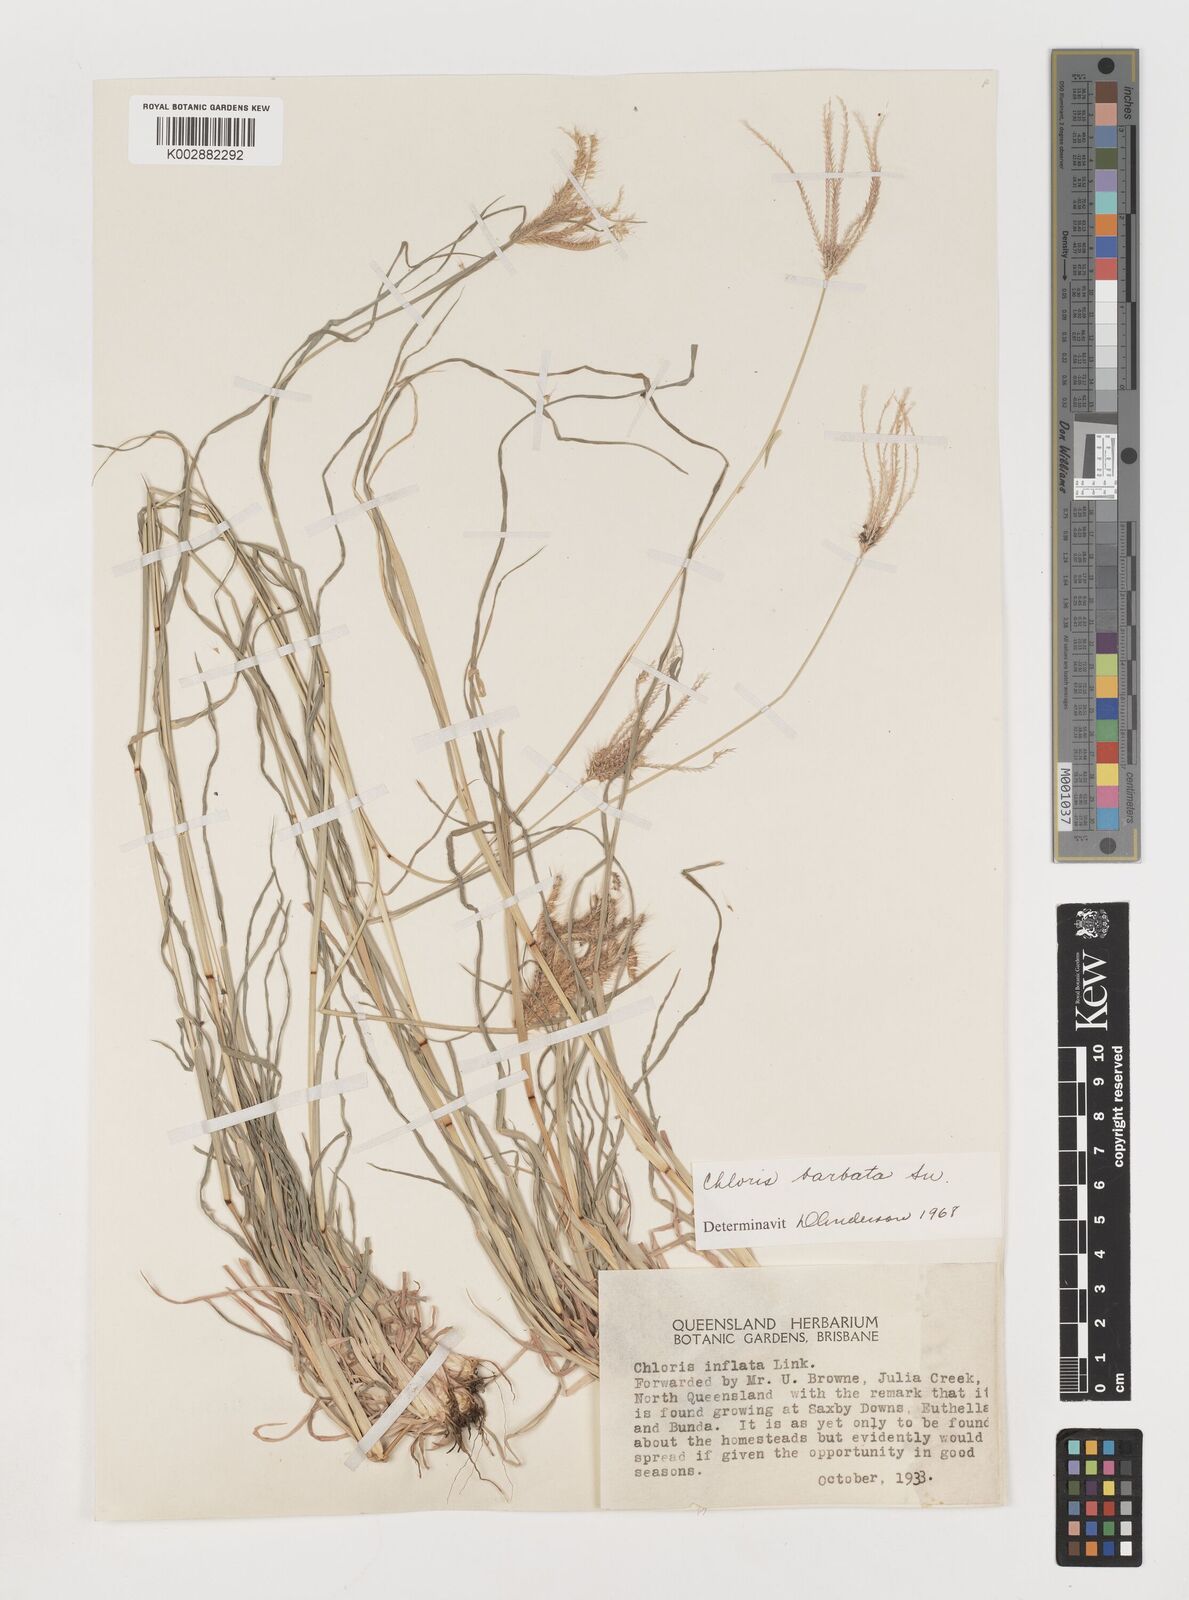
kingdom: Plantae
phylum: Tracheophyta
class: Liliopsida
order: Poales
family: Poaceae
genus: Chloris
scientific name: Chloris barbata
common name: Swollen fingergrass
